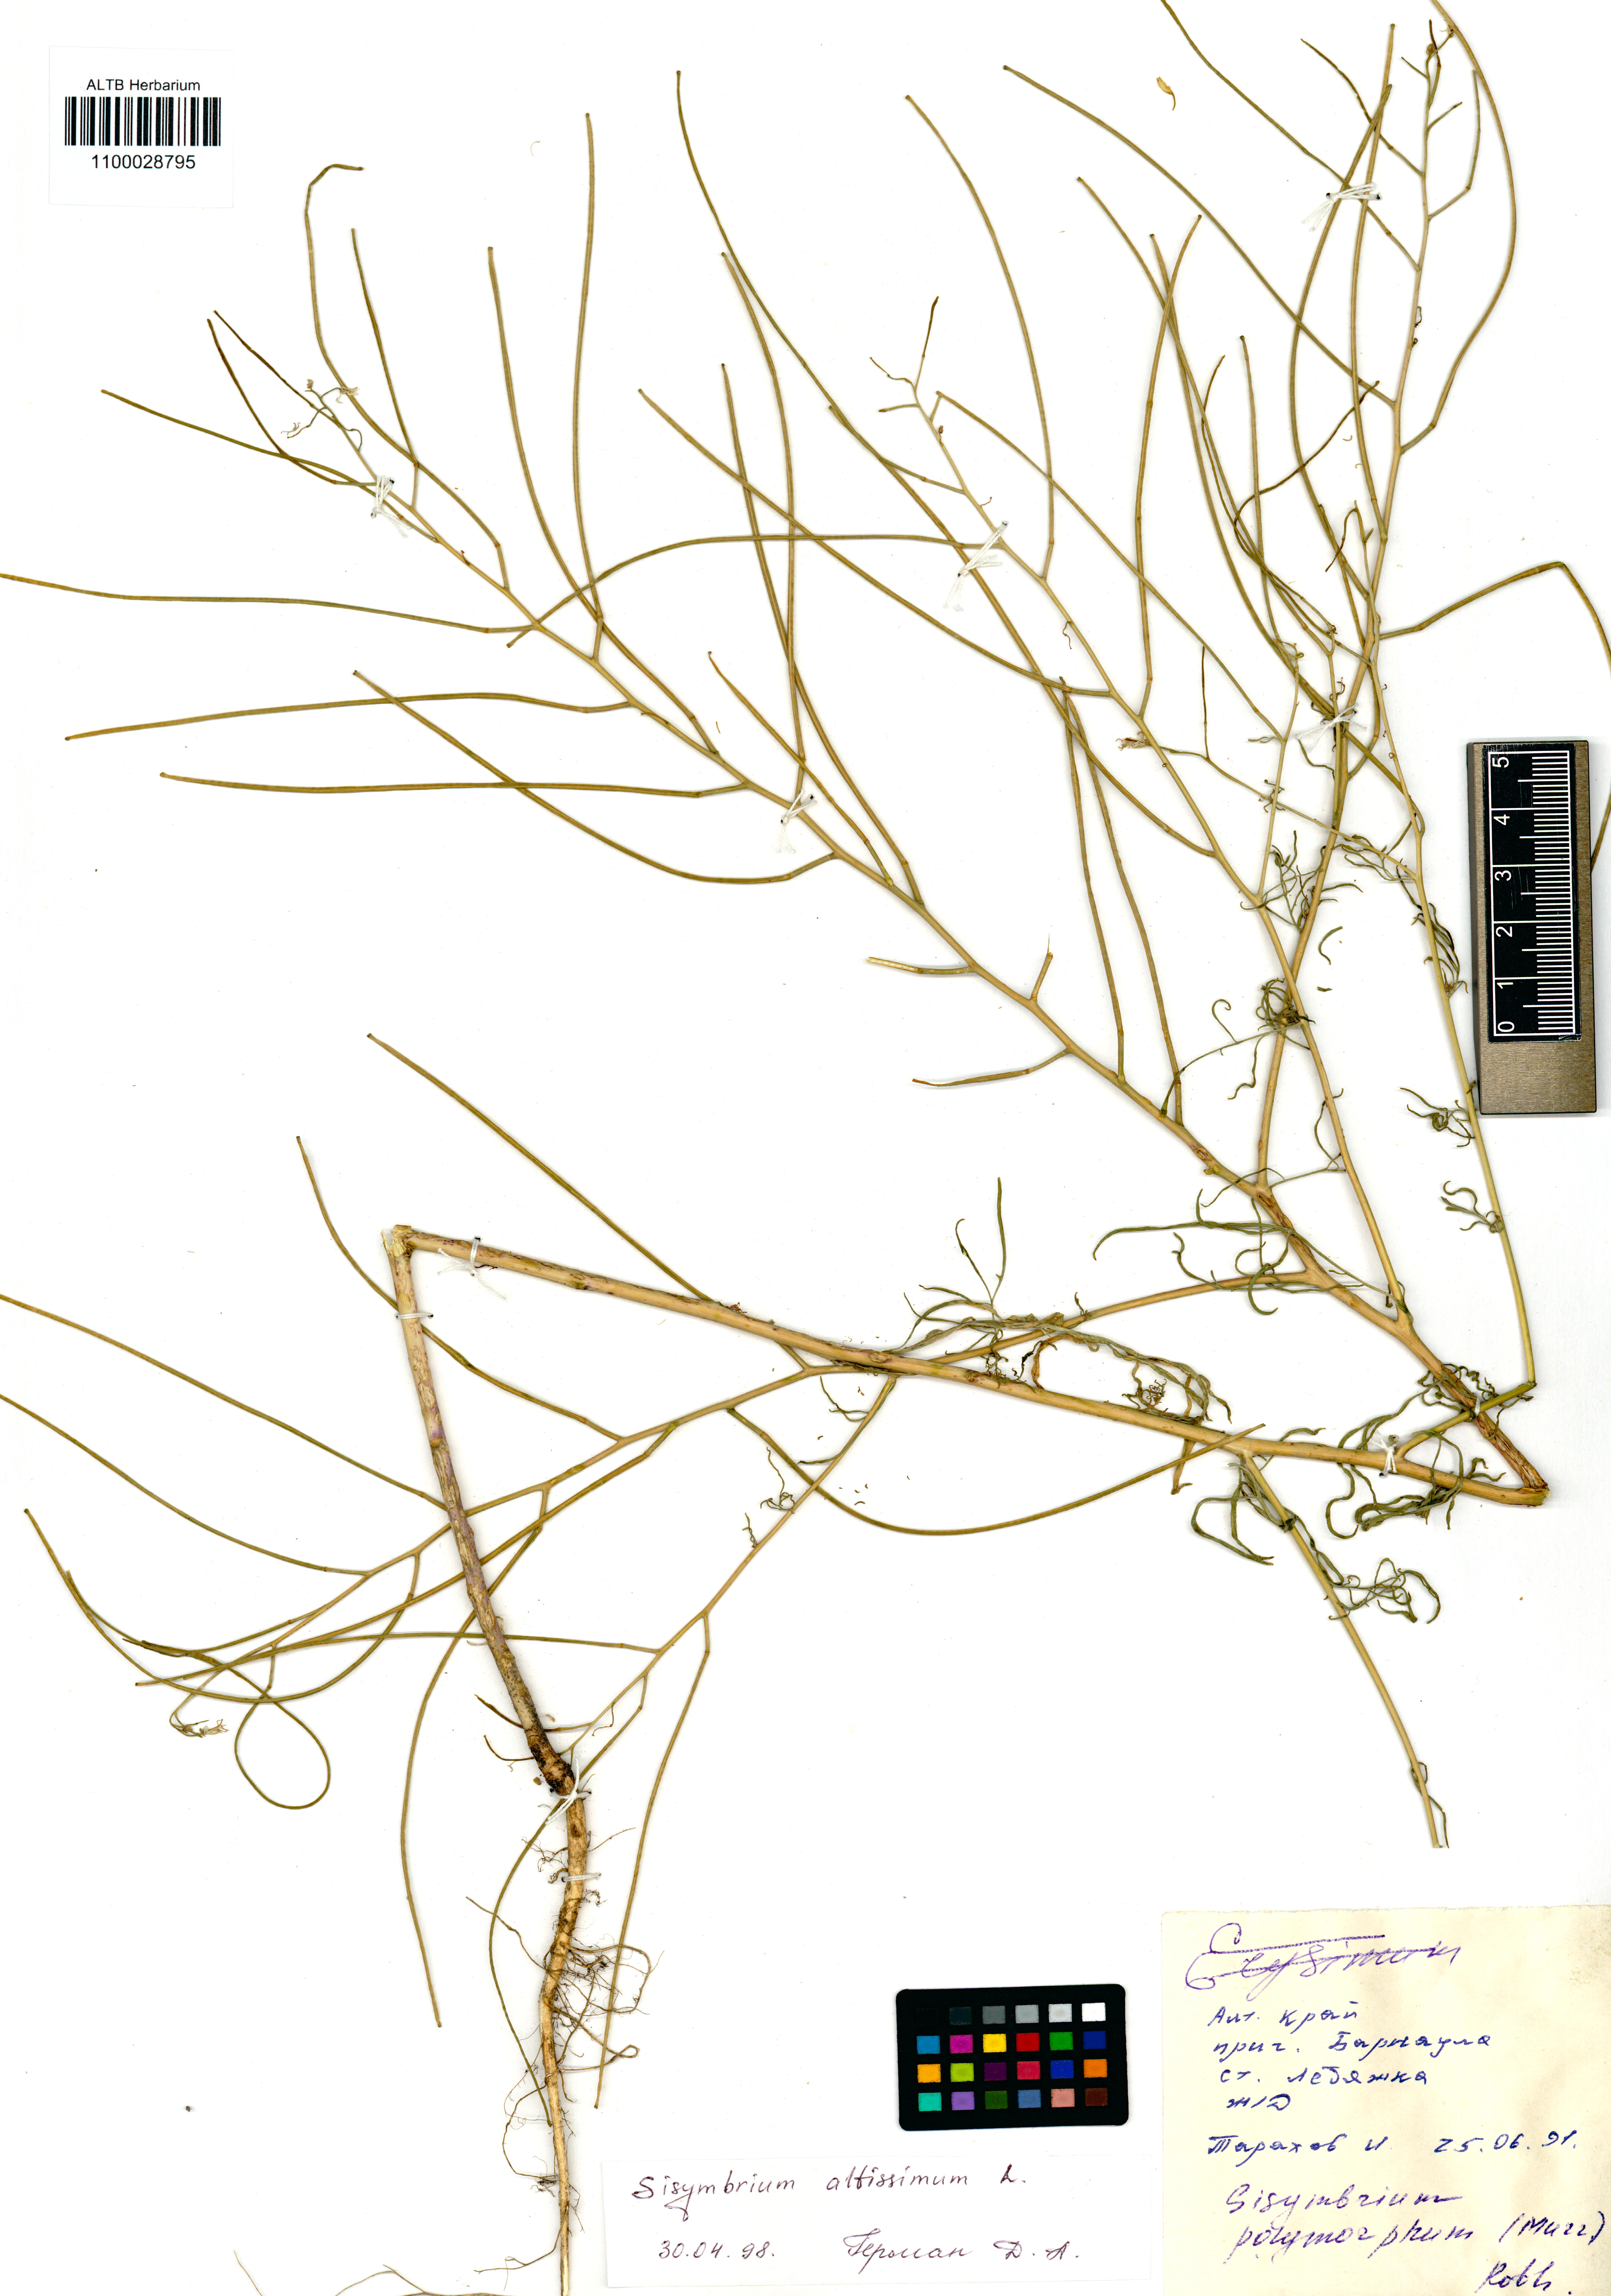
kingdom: Plantae
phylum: Tracheophyta
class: Magnoliopsida
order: Brassicales
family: Brassicaceae
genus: Sisymbrium
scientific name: Sisymbrium altissimum
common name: Tall rocket
